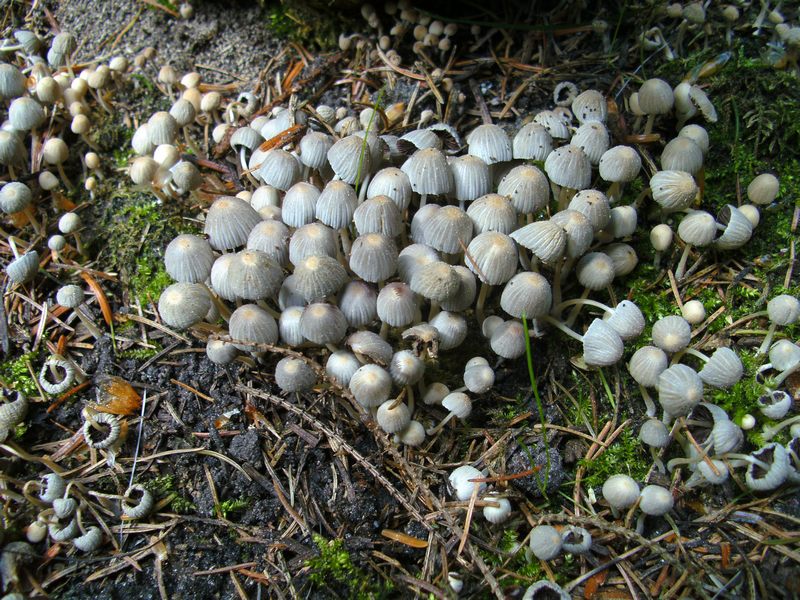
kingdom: Fungi
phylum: Basidiomycota
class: Agaricomycetes
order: Agaricales
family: Psathyrellaceae
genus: Coprinellus
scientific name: Coprinellus disseminatus
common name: bredsået blækhat
